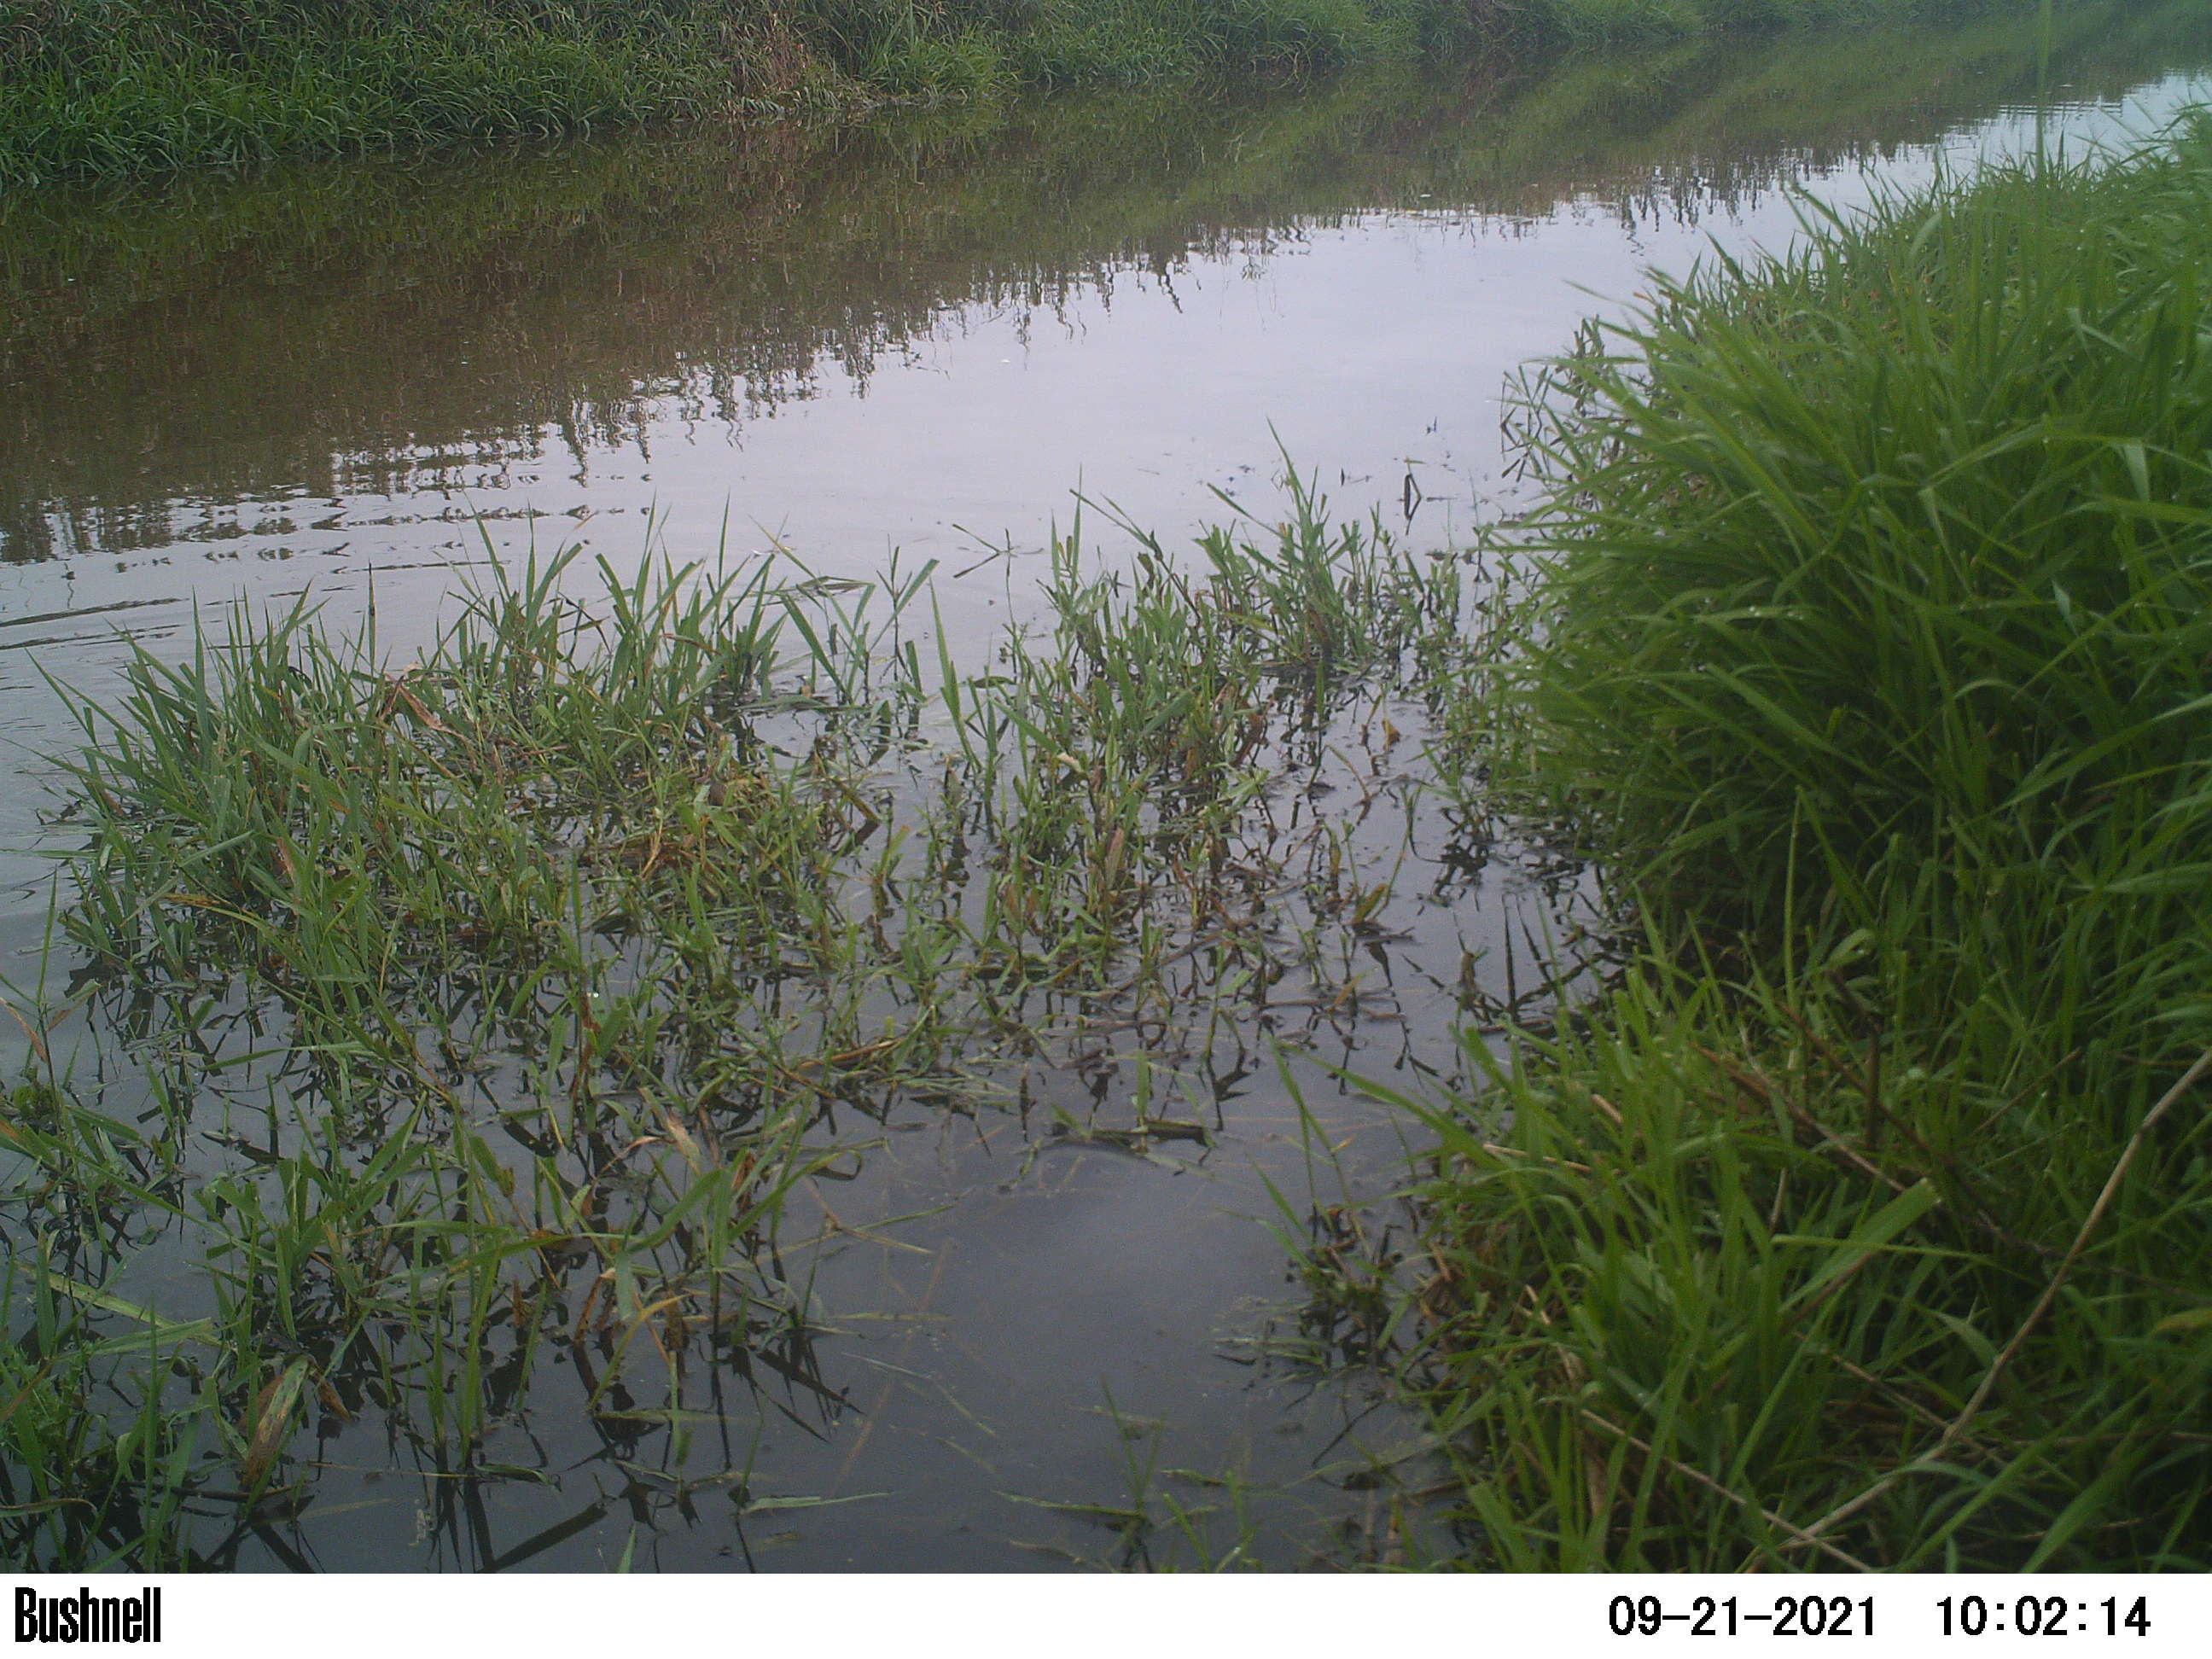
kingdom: Animalia
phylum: Chordata
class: Aves
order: Gruiformes
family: Rallidae
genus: Fulica
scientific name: Fulica atra
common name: Eurasian coot
